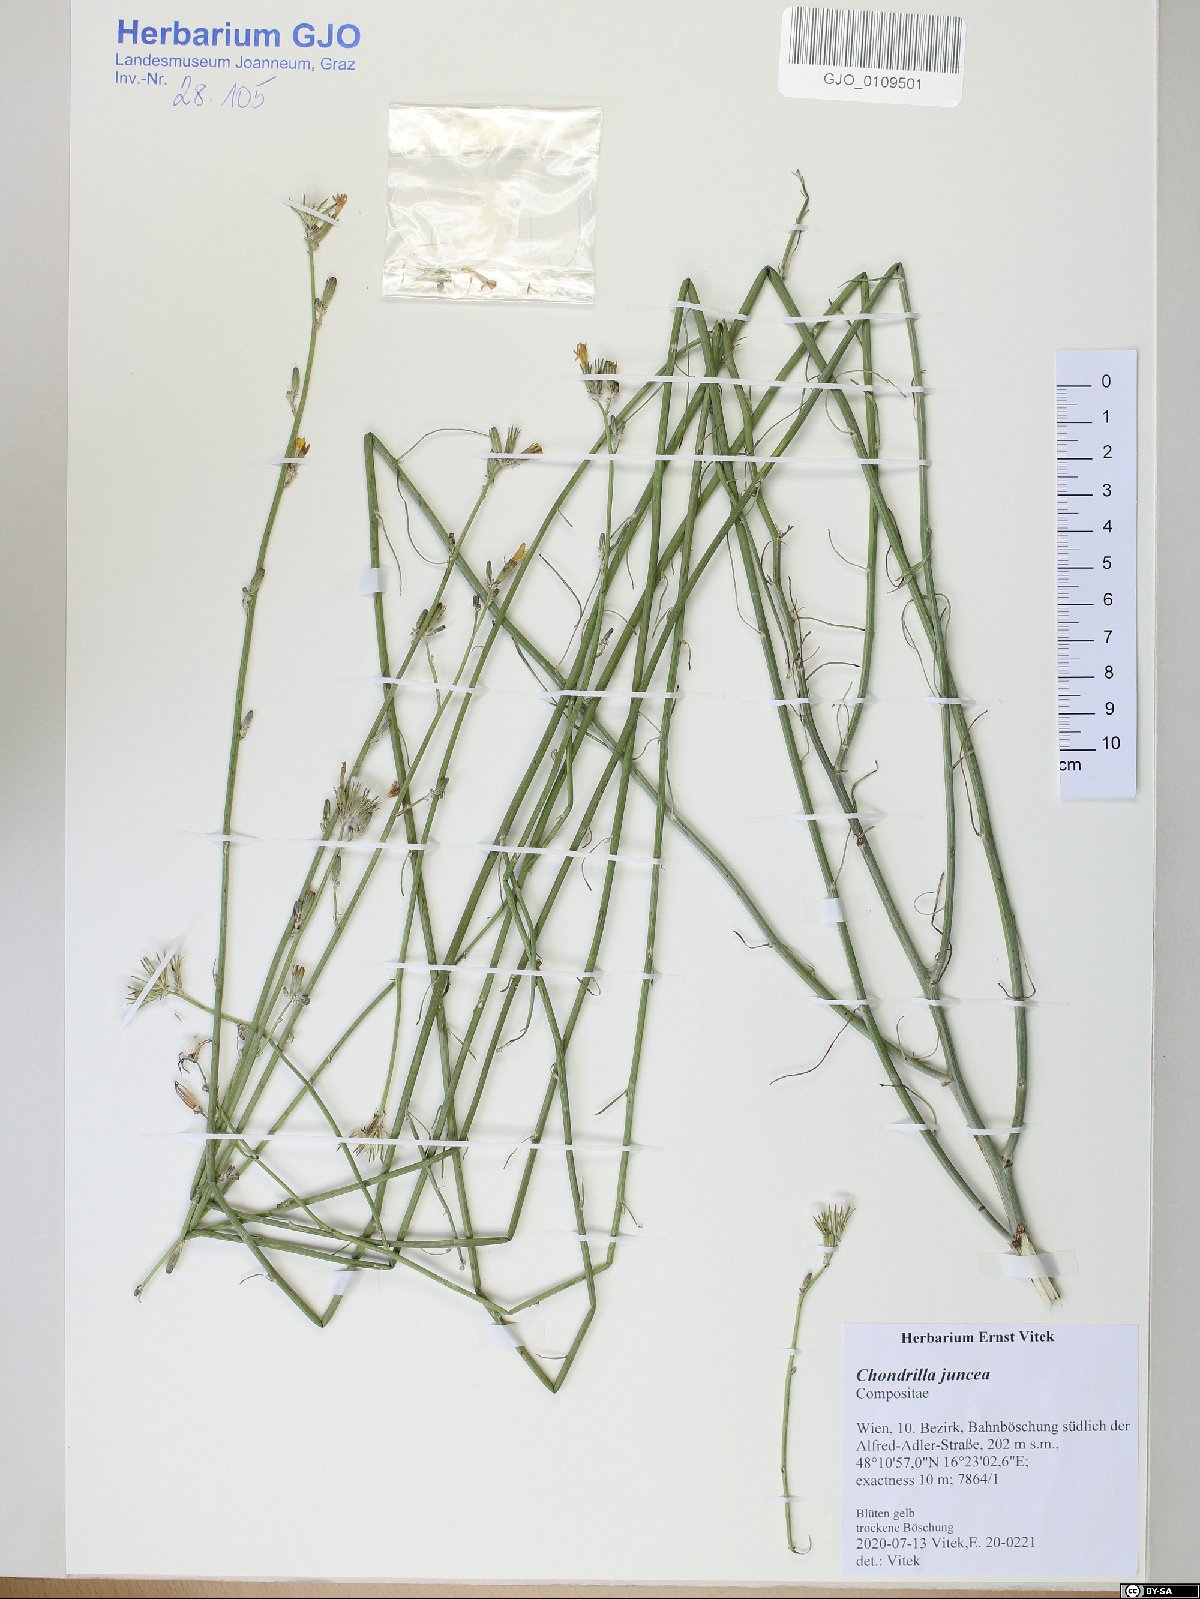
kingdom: Plantae
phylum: Tracheophyta
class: Magnoliopsida
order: Asterales
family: Asteraceae
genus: Chondrilla
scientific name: Chondrilla juncea
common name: Skeleton weed
